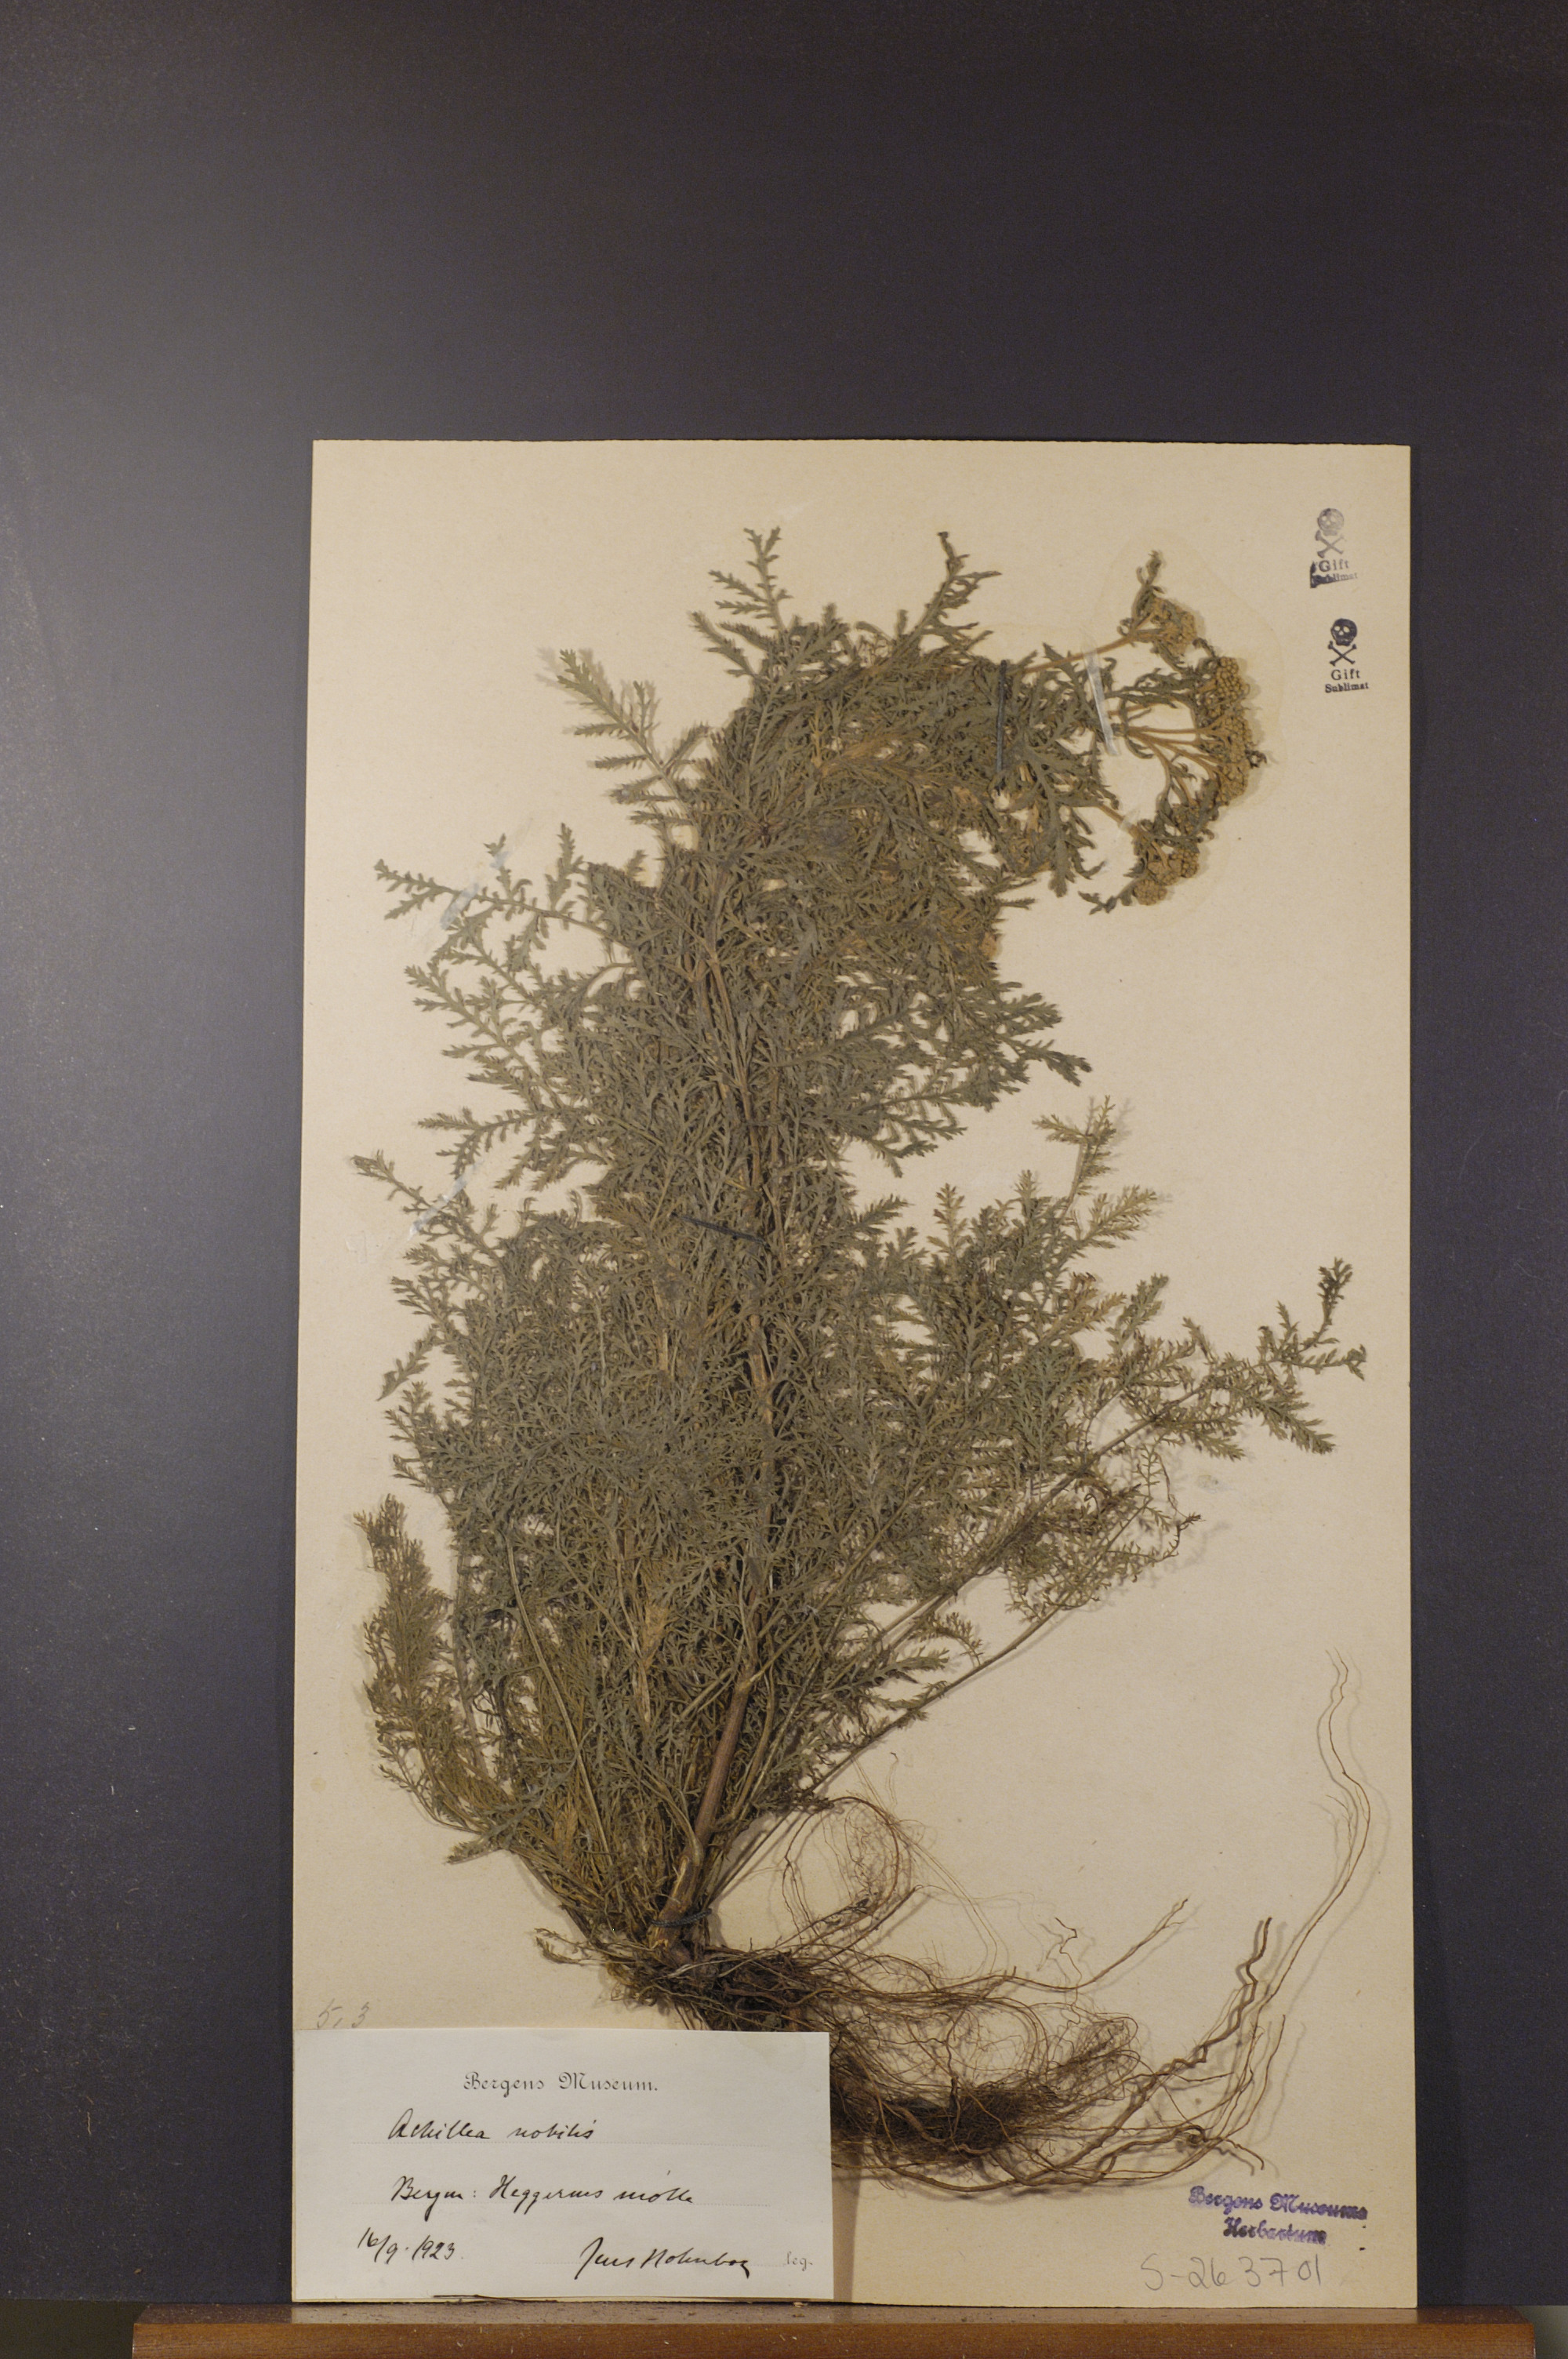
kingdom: Plantae
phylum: Tracheophyta
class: Magnoliopsida
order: Asterales
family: Asteraceae
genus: Achillea
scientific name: Achillea nobilis
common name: Noble yarrow
